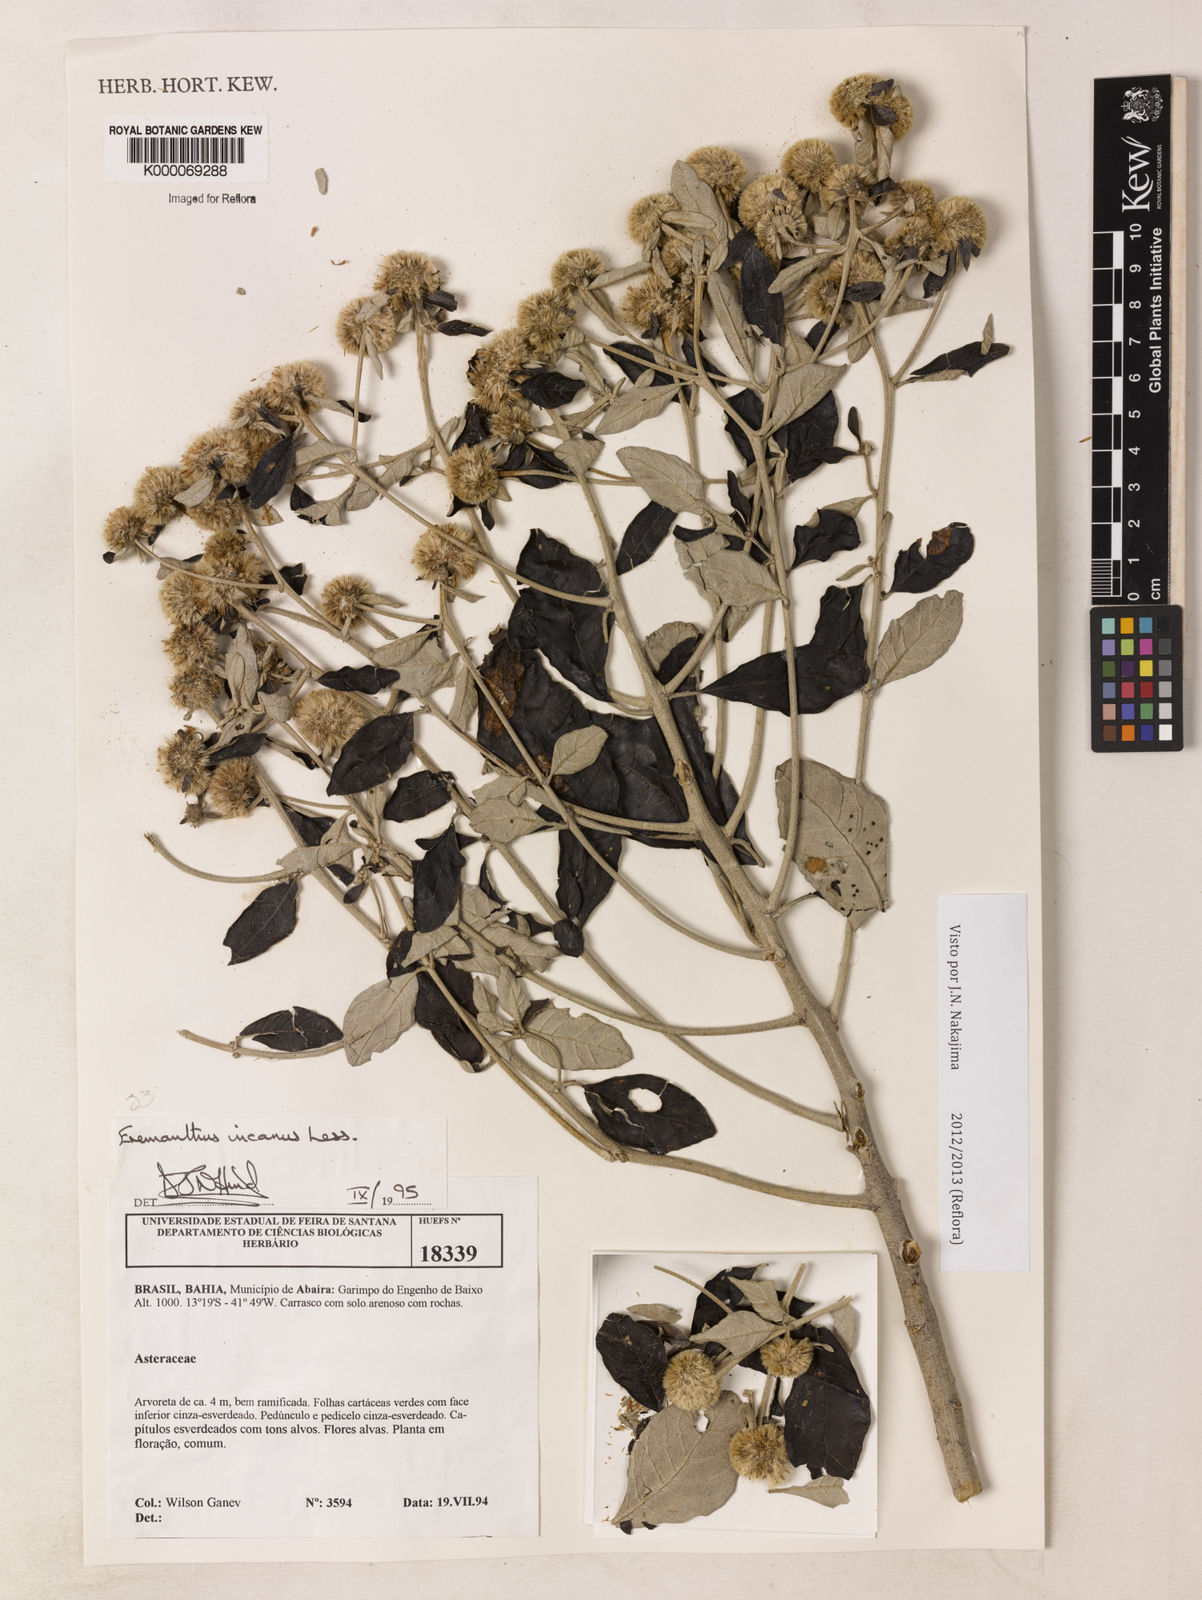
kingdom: Plantae
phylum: Tracheophyta
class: Magnoliopsida
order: Asterales
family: Asteraceae
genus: Eremanthus
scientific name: Eremanthus incanus
